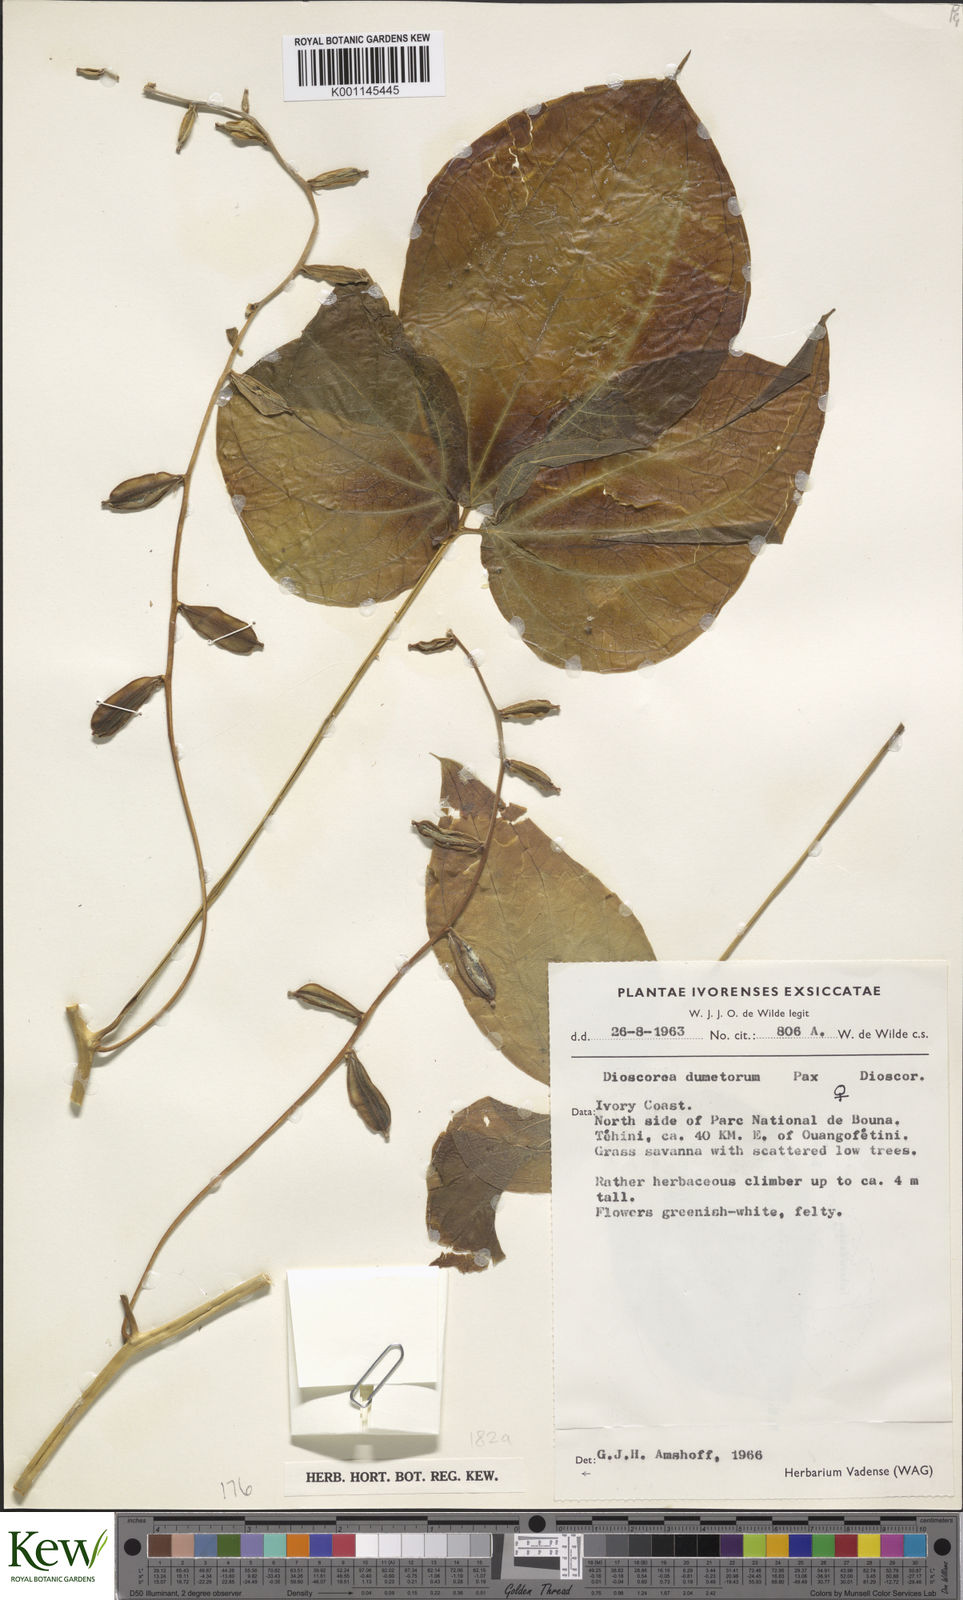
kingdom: Plantae
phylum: Tracheophyta
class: Liliopsida
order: Dioscoreales
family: Dioscoreaceae
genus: Dioscorea
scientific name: Dioscorea dumetorum
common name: African bitter yam
